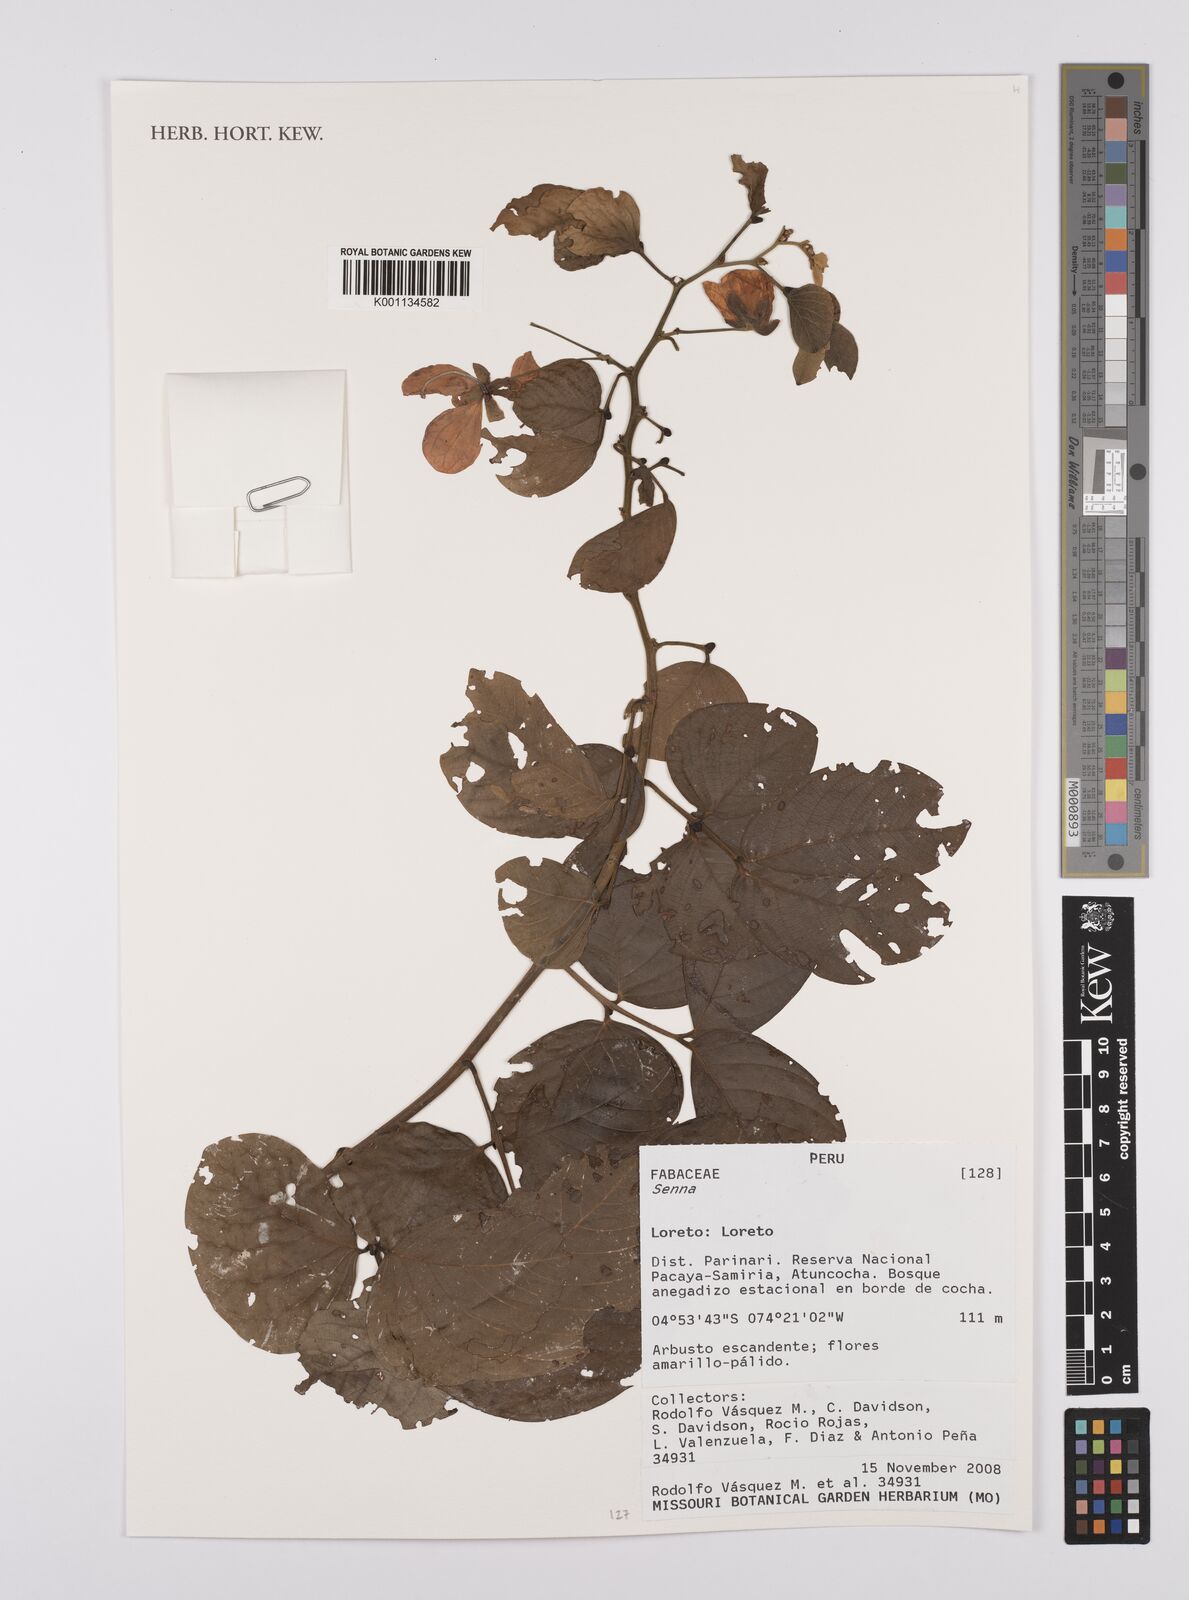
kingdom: Plantae
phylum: Tracheophyta
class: Magnoliopsida
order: Fabales
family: Fabaceae
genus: Senna
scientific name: Senna
